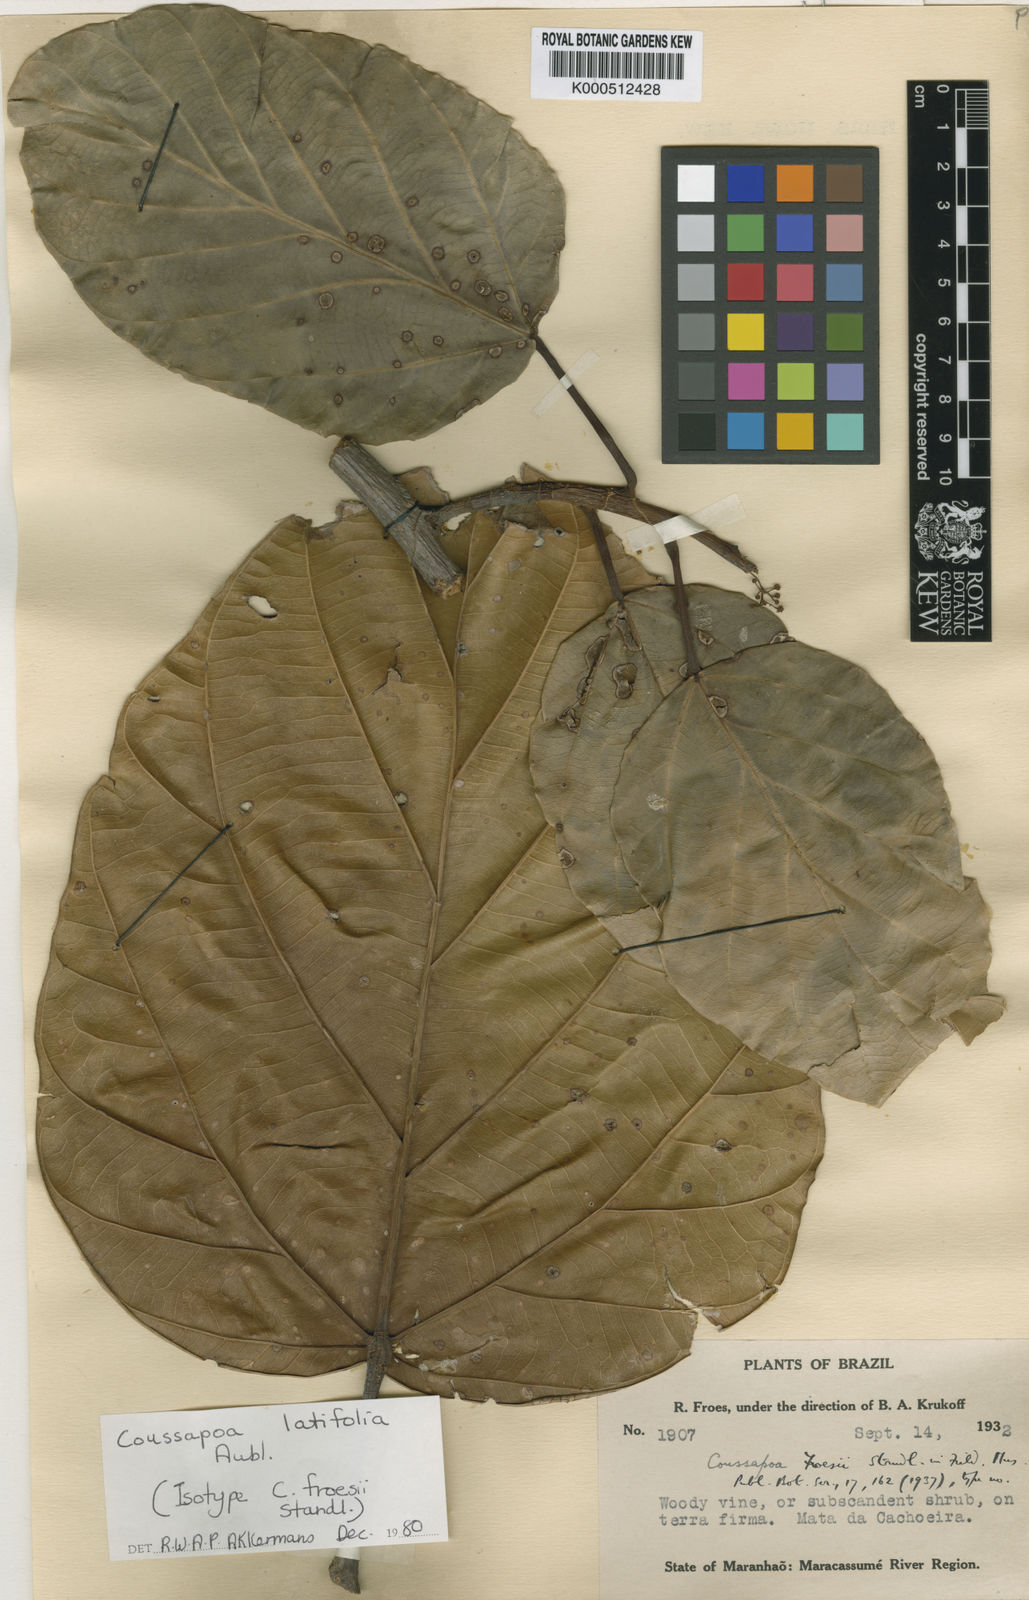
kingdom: Plantae
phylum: Tracheophyta
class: Magnoliopsida
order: Rosales
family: Urticaceae
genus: Coussapoa
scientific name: Coussapoa latifolia
